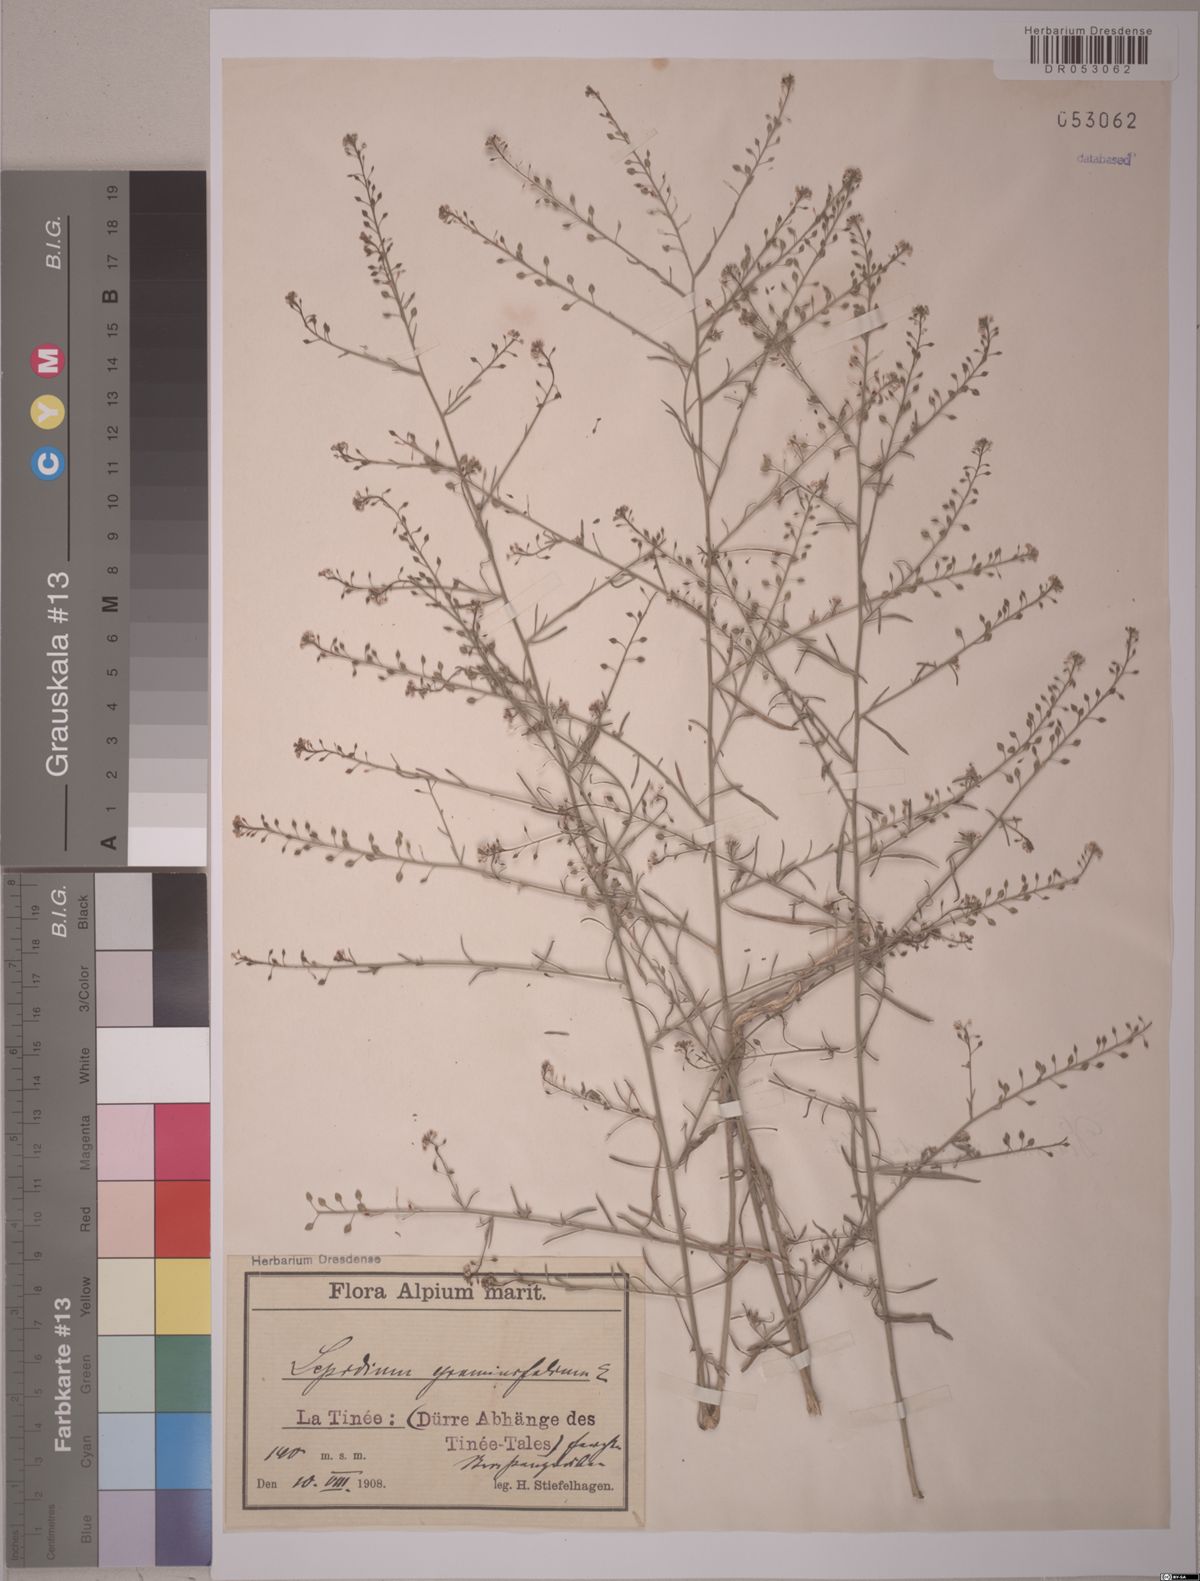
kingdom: Plantae
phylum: Tracheophyta
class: Magnoliopsida
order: Brassicales
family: Brassicaceae
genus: Lepidium
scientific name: Lepidium graminifolium
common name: Tall pepperwort
